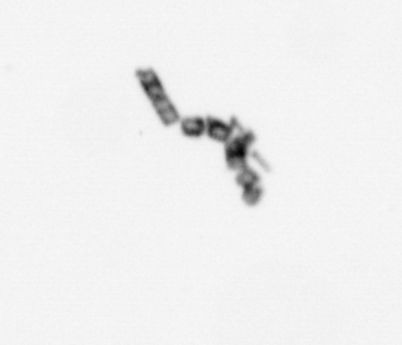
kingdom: Chromista
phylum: Ochrophyta
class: Bacillariophyceae
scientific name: Bacillariophyceae
